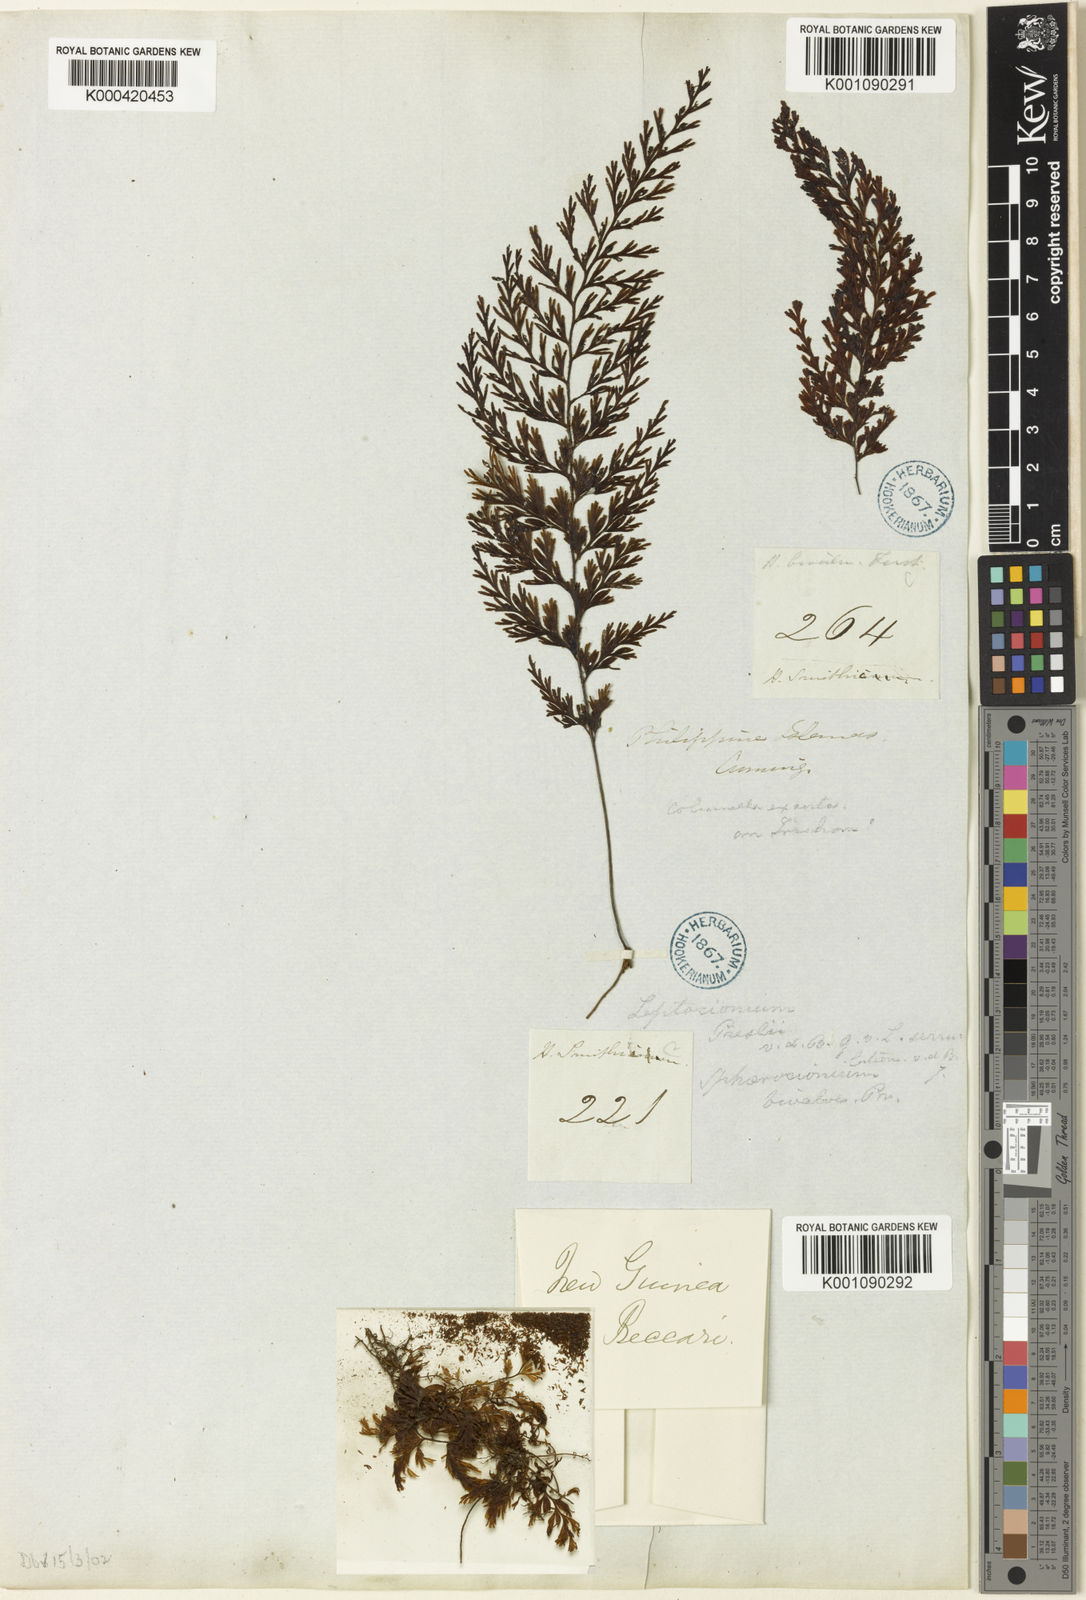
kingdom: Plantae
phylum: Tracheophyta
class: Polypodiopsida
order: Hymenophyllales
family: Hymenophyllaceae
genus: Hymenophyllum
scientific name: Hymenophyllum serrulatum
